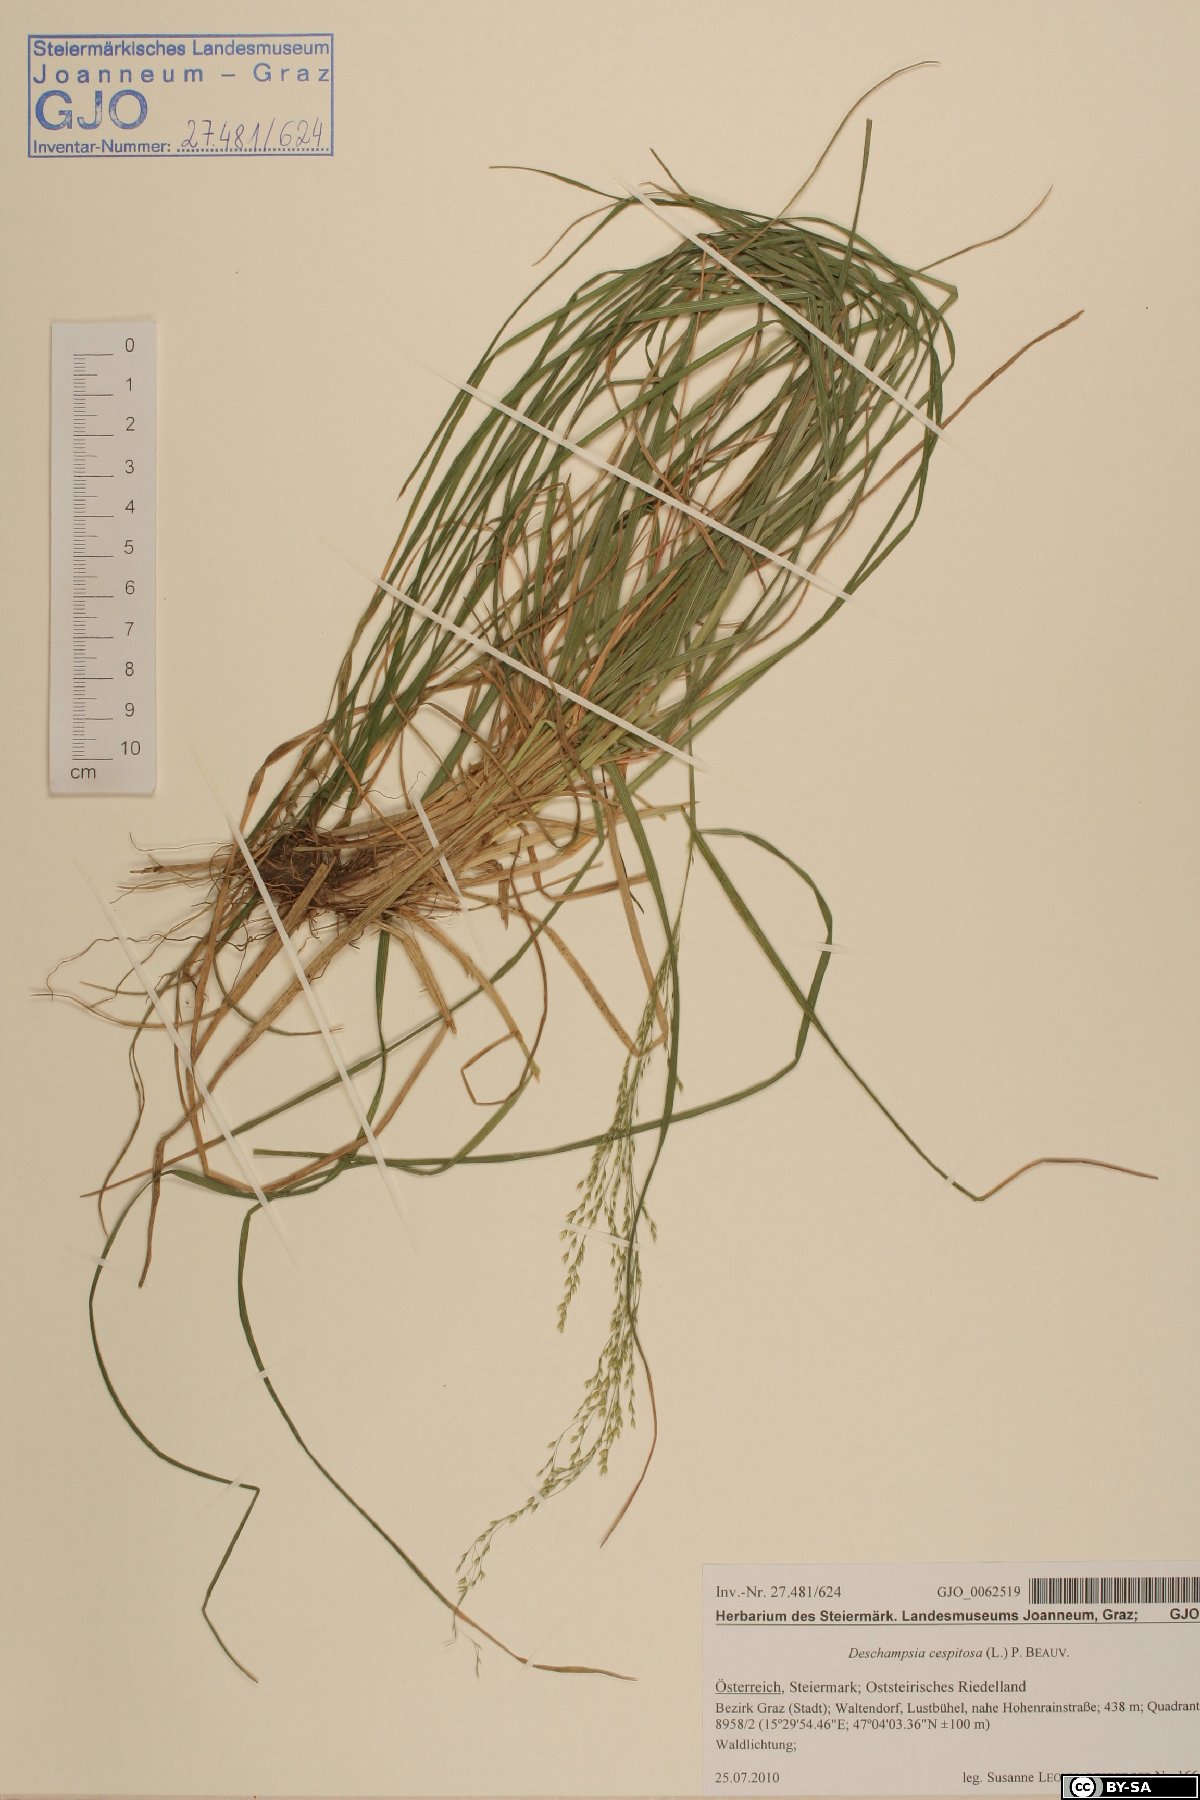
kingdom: Plantae
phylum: Tracheophyta
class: Liliopsida
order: Poales
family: Poaceae
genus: Deschampsia
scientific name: Deschampsia cespitosa
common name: Tufted hair-grass
